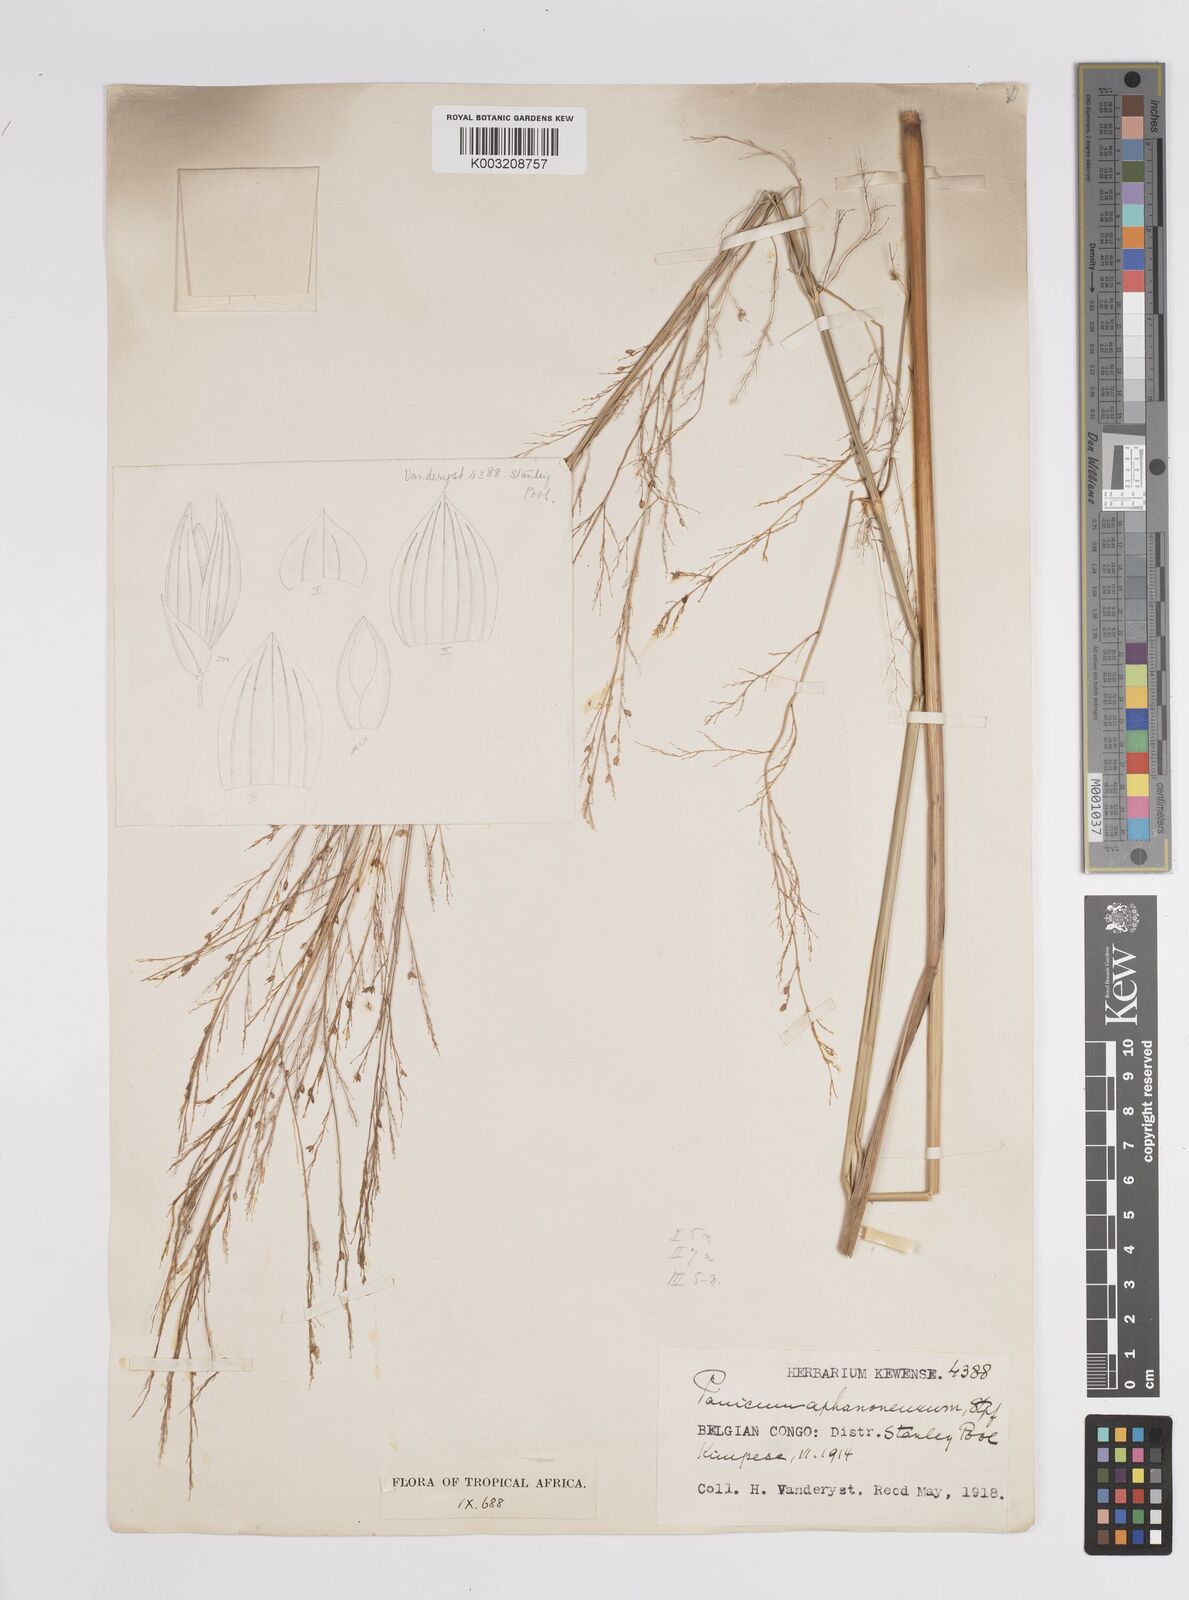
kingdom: Plantae
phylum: Tracheophyta
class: Liliopsida
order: Poales
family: Poaceae
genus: Panicum
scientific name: Panicum fluviicola
